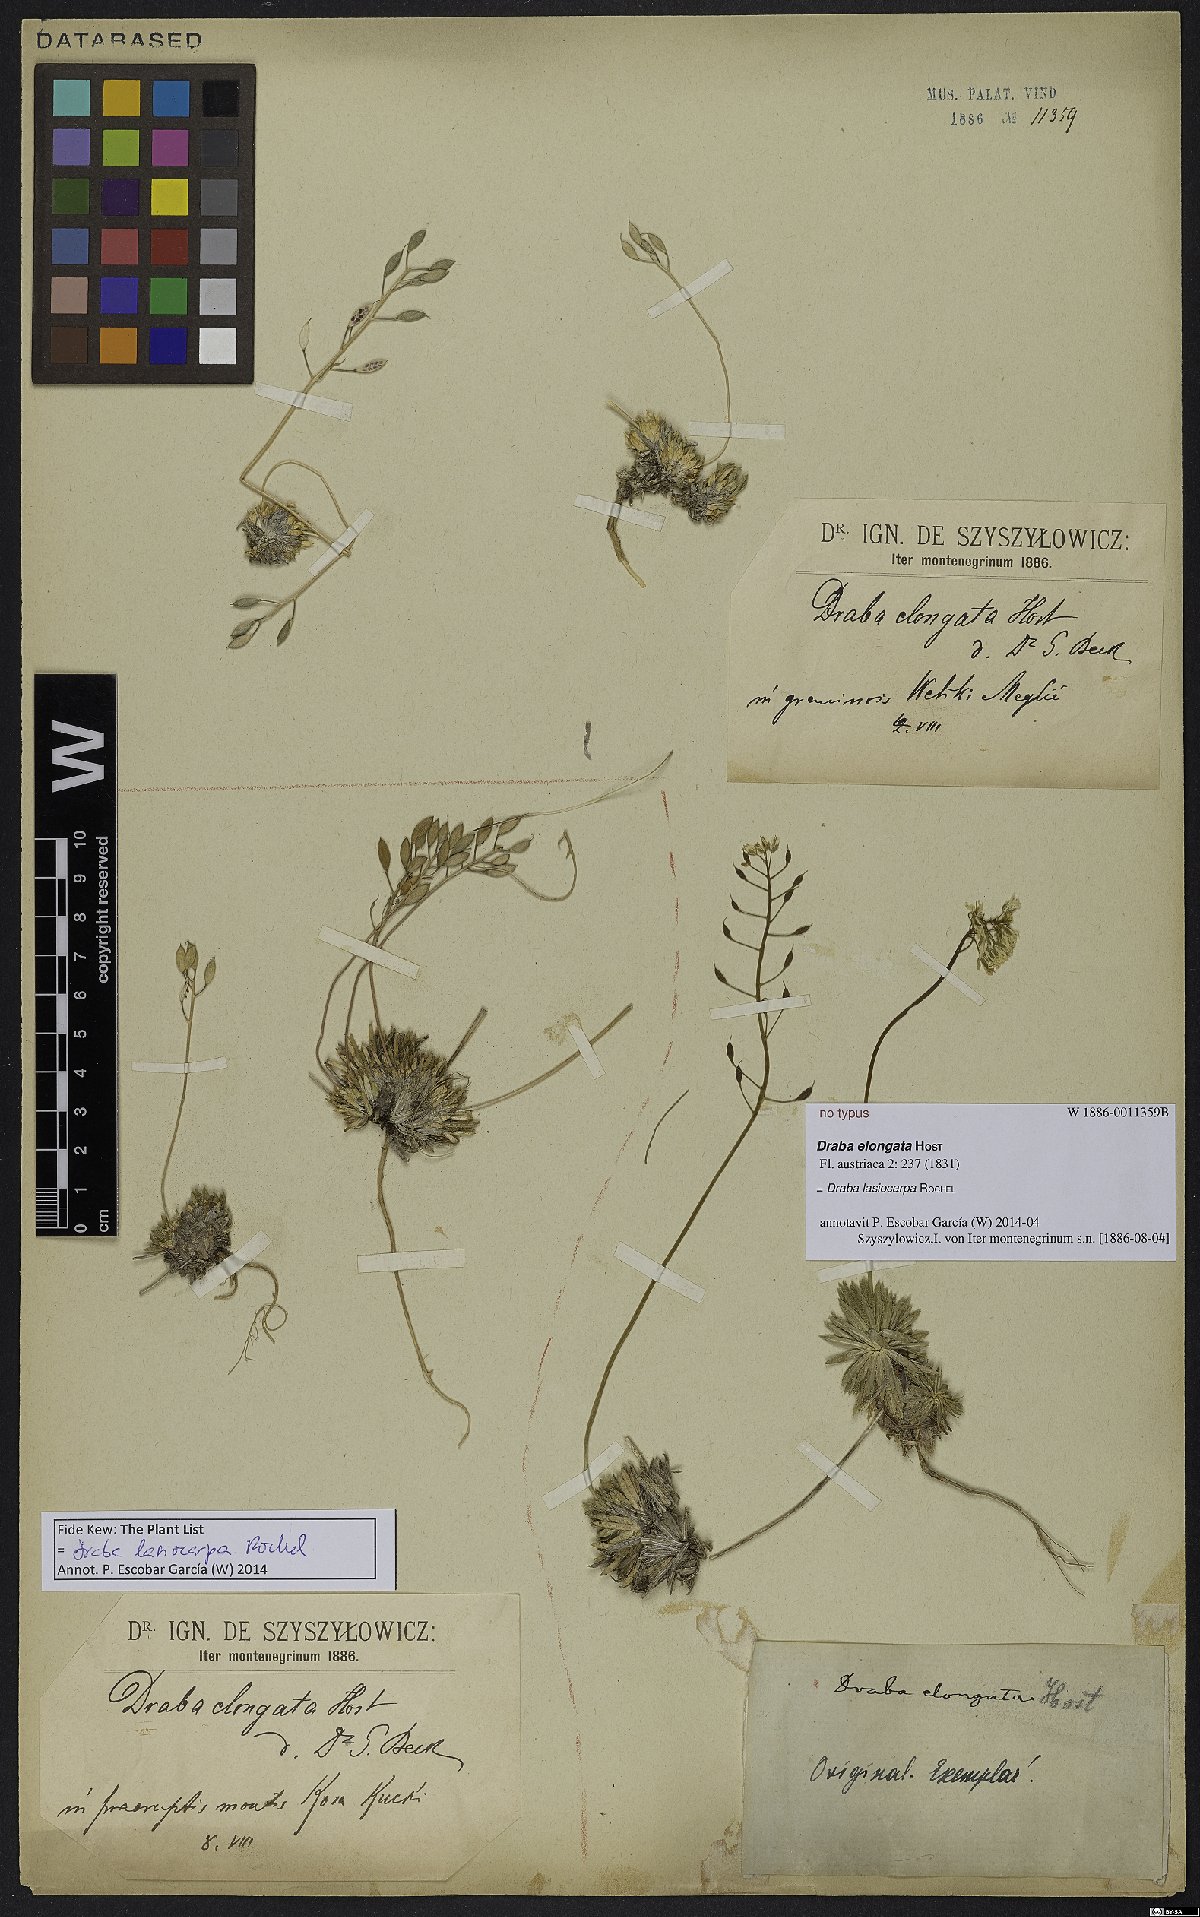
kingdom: Plantae
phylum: Tracheophyta
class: Magnoliopsida
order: Brassicales
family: Brassicaceae
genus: Draba
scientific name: Draba lasiocarpa
